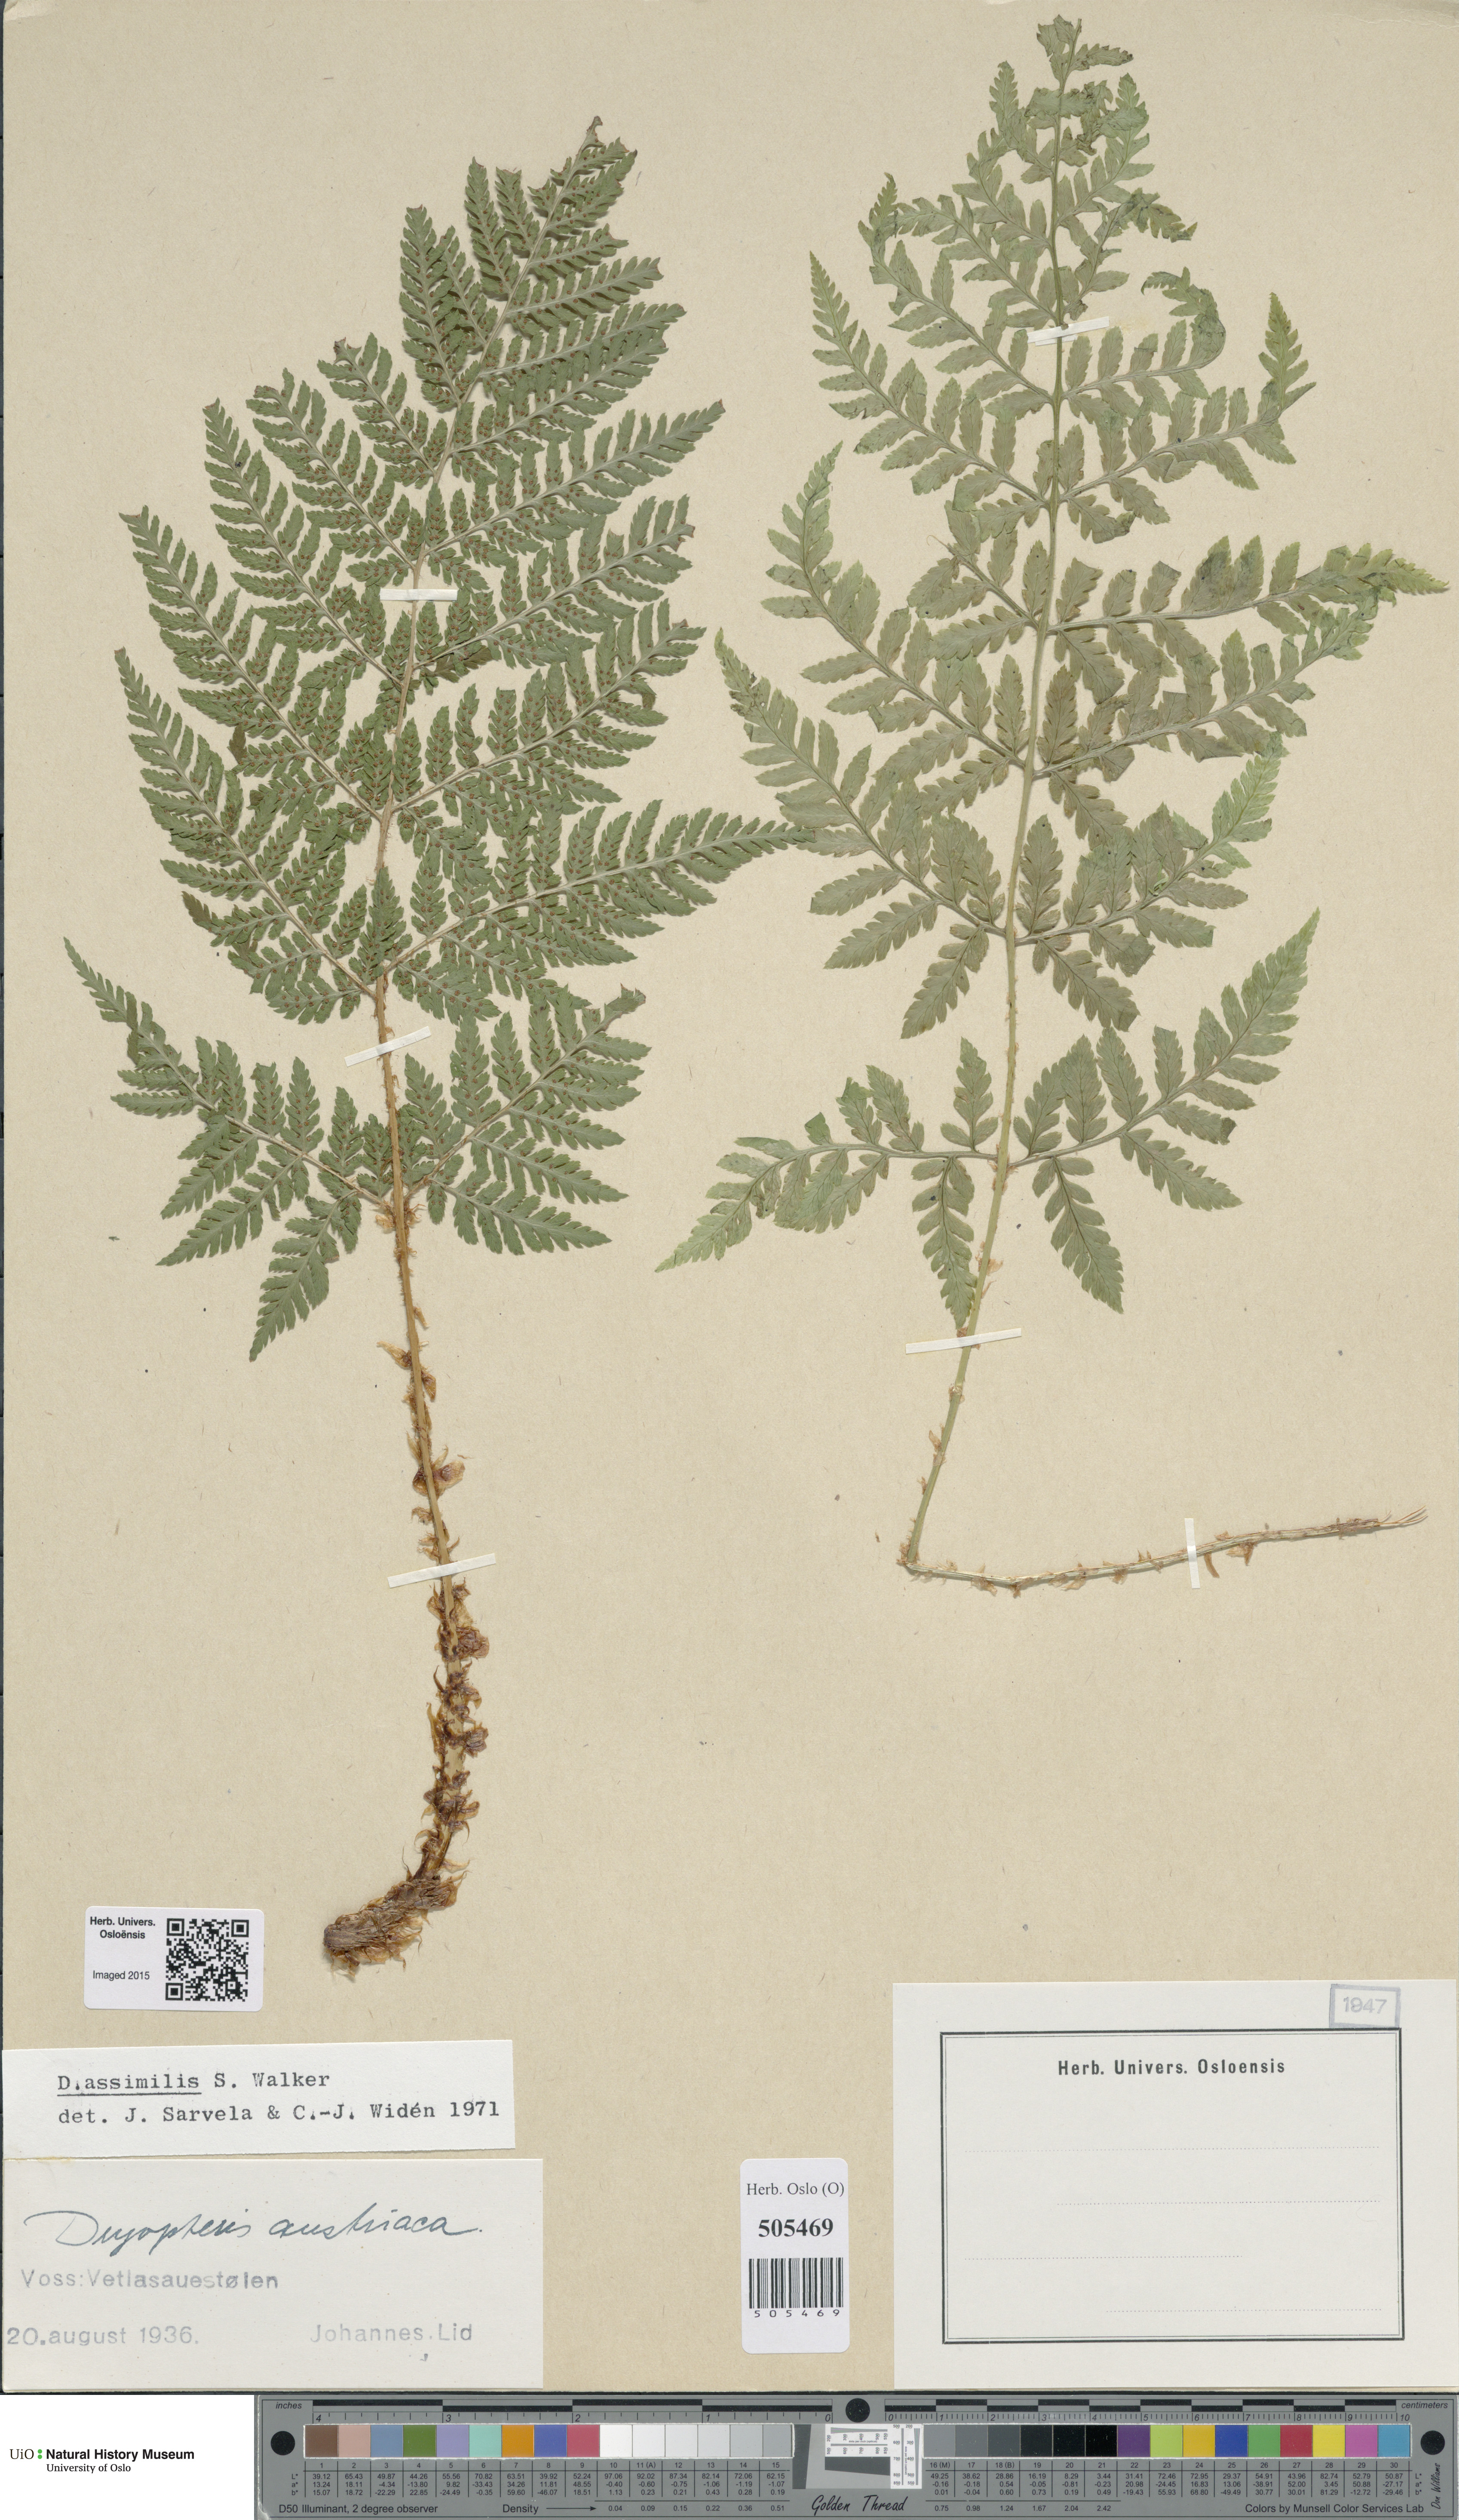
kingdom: Plantae
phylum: Tracheophyta
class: Polypodiopsida
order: Polypodiales
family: Dryopteridaceae
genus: Dryopteris
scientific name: Dryopteris expansa
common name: Northern buckler fern
